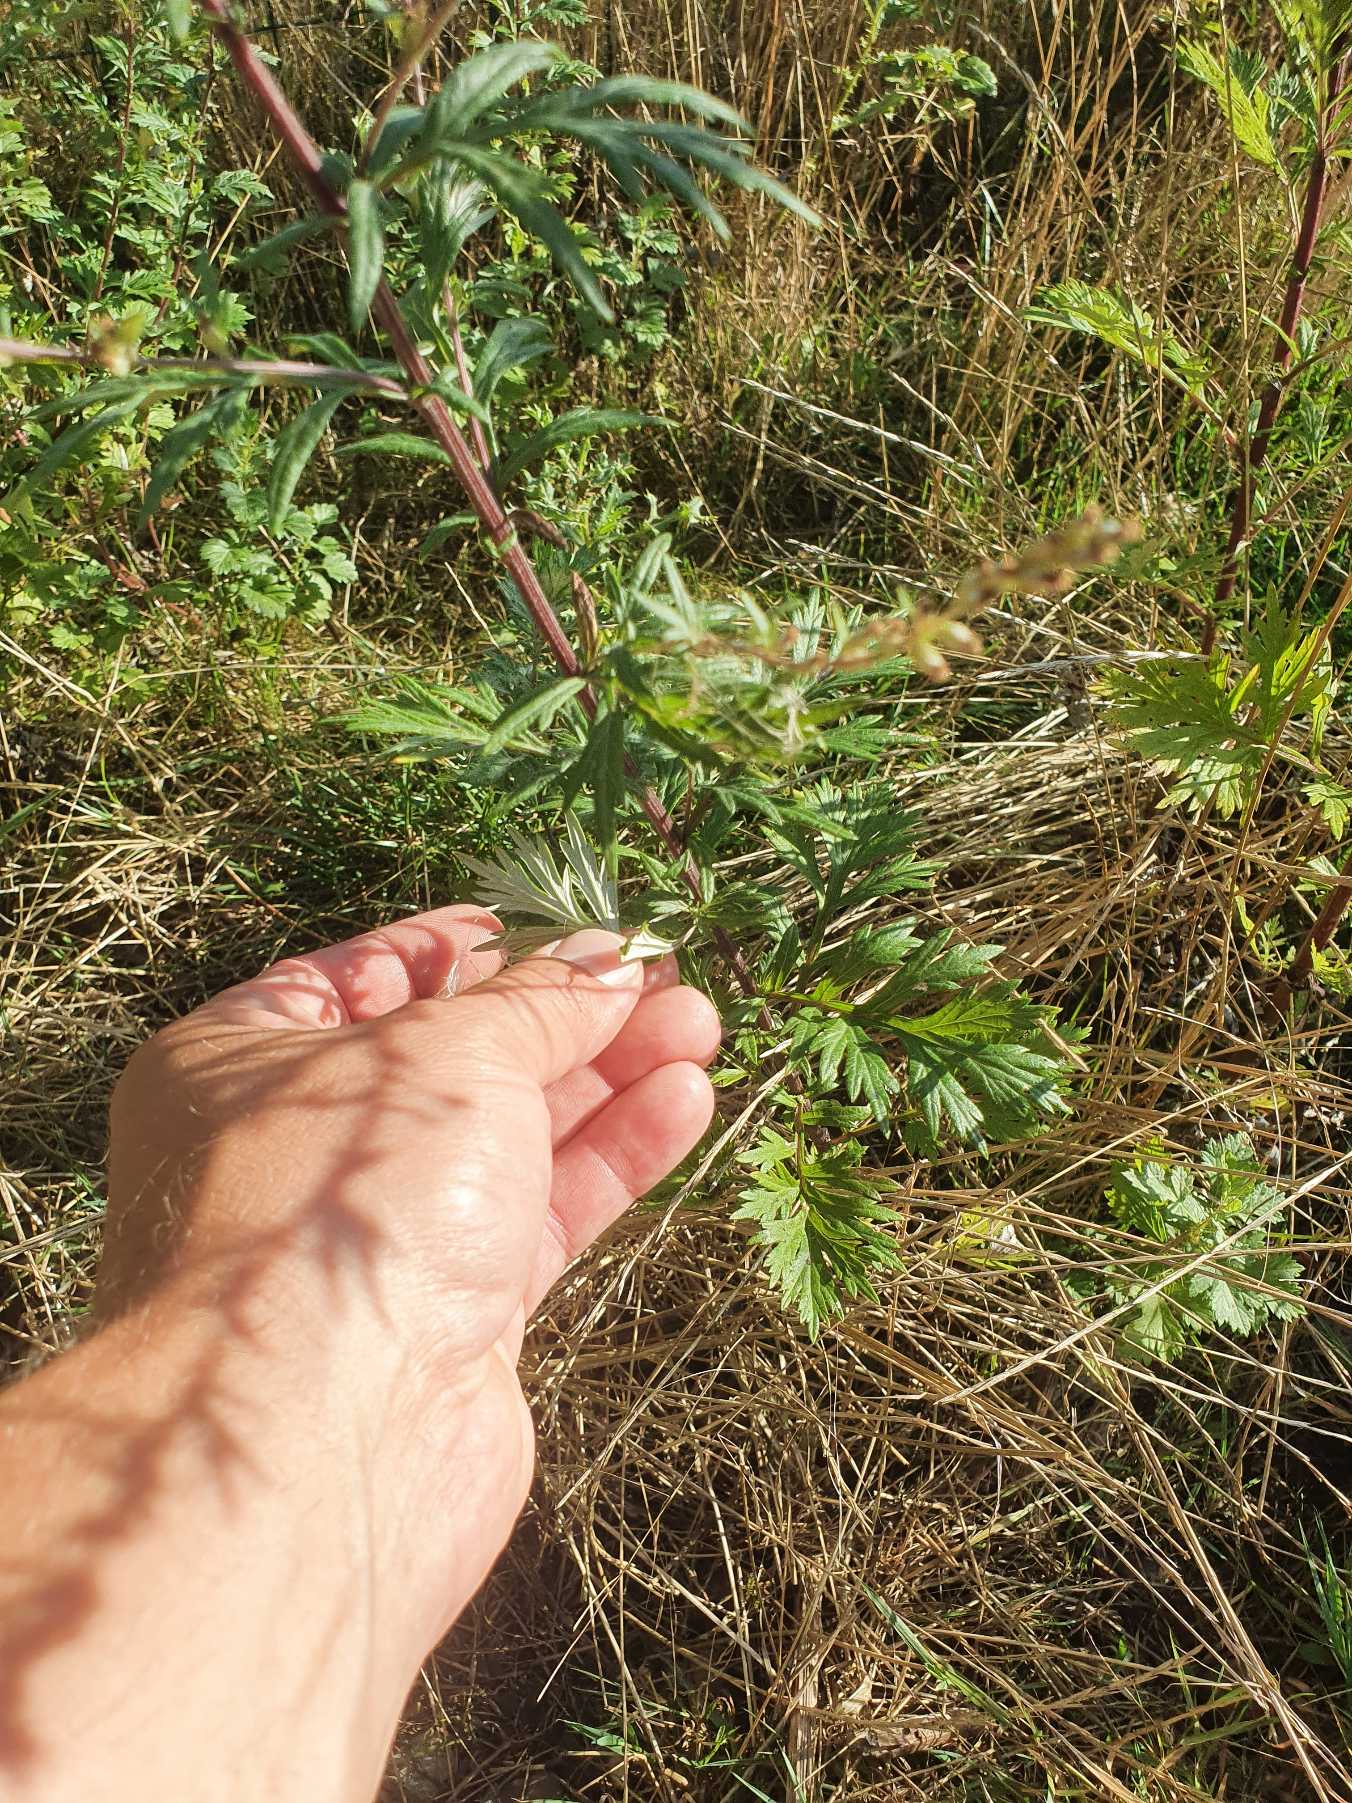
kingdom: Plantae
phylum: Tracheophyta
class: Magnoliopsida
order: Asterales
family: Asteraceae
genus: Artemisia
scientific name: Artemisia vulgaris
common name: Grå-bynke
